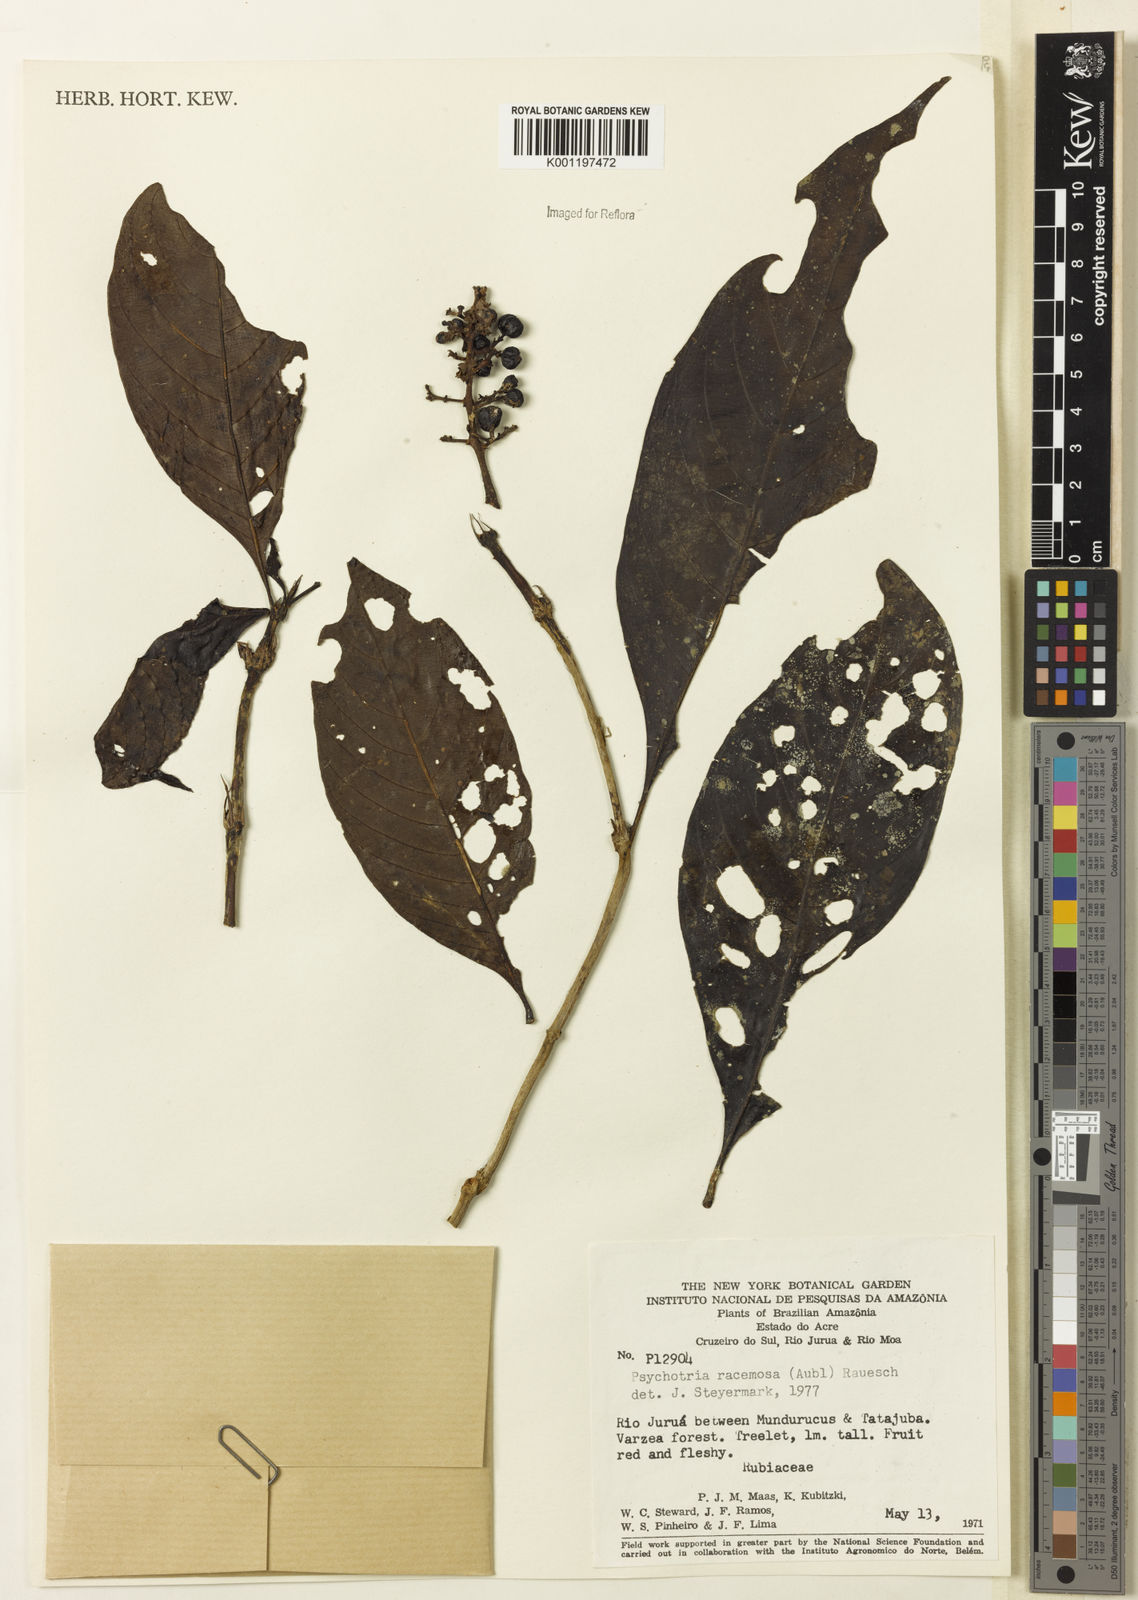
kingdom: Plantae
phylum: Tracheophyta
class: Magnoliopsida
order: Gentianales
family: Rubiaceae
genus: Palicourea
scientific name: Palicourea racemosa
